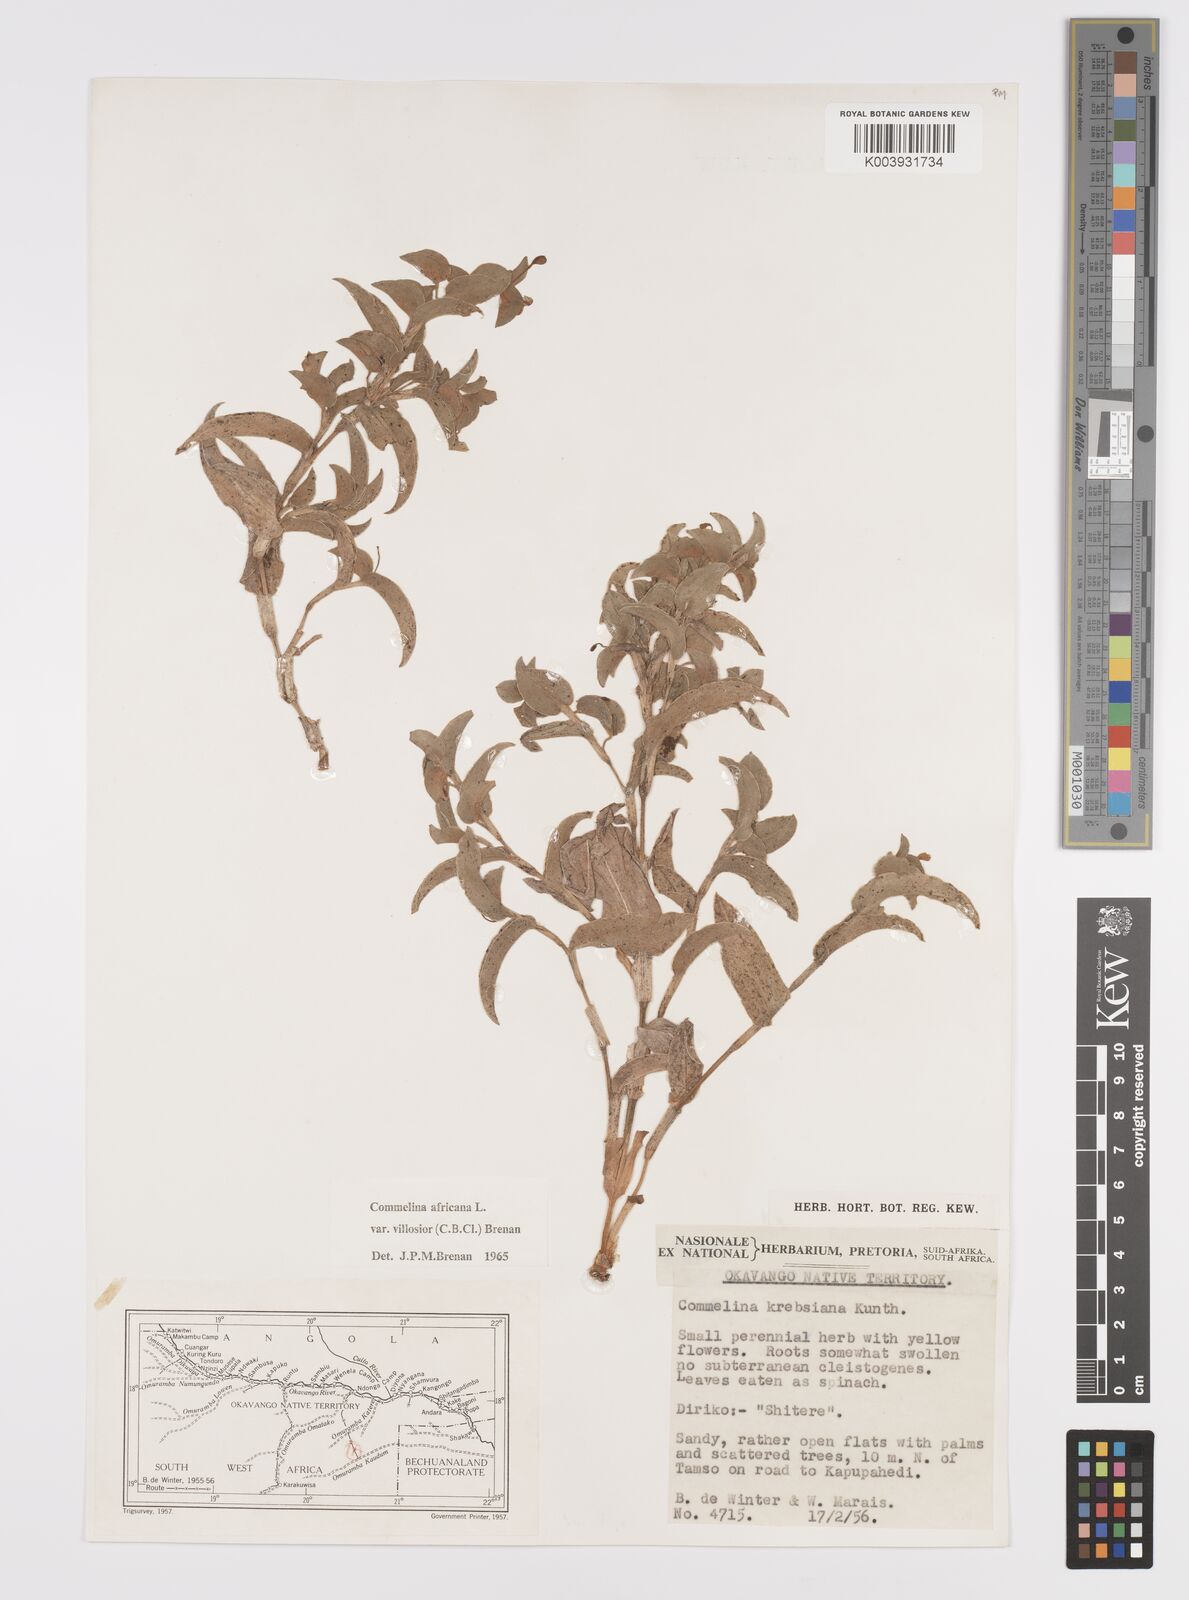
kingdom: Plantae
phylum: Tracheophyta
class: Liliopsida
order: Commelinales
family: Commelinaceae
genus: Commelina
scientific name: Commelina africana
